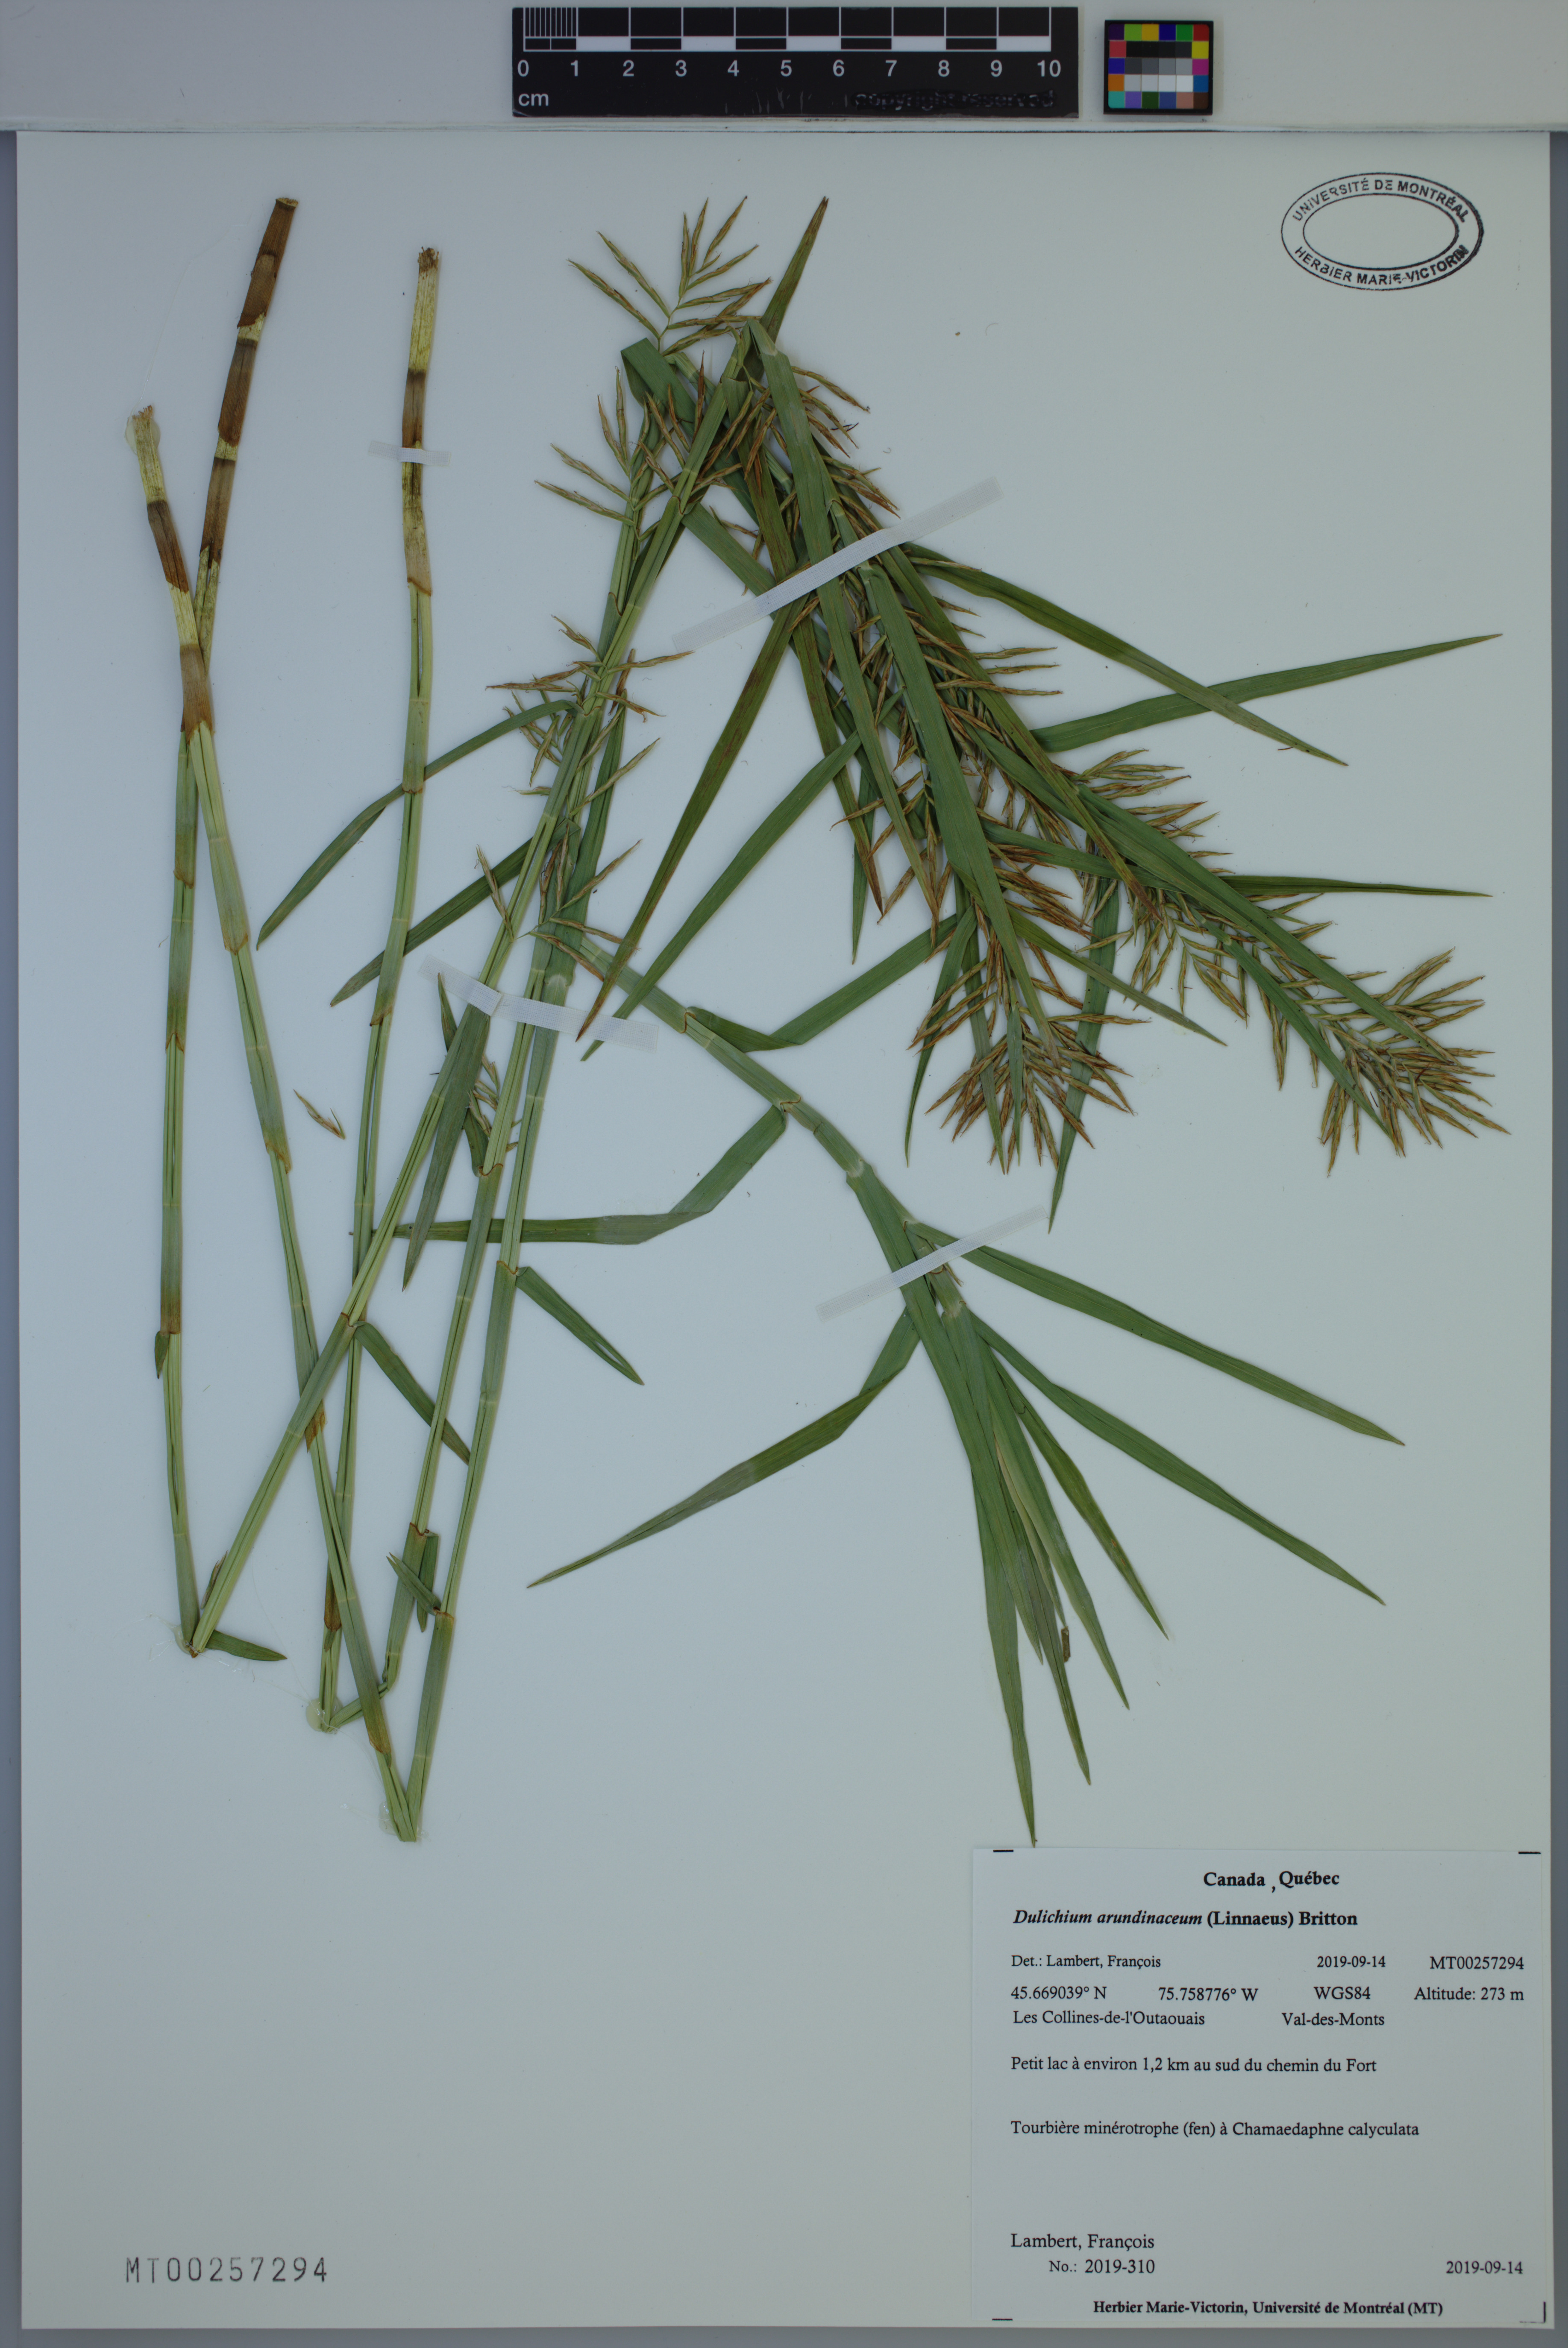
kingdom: Plantae
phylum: Tracheophyta
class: Liliopsida
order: Poales
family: Cyperaceae
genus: Dulichium
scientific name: Dulichium arundinaceum
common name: Three-way sedge
